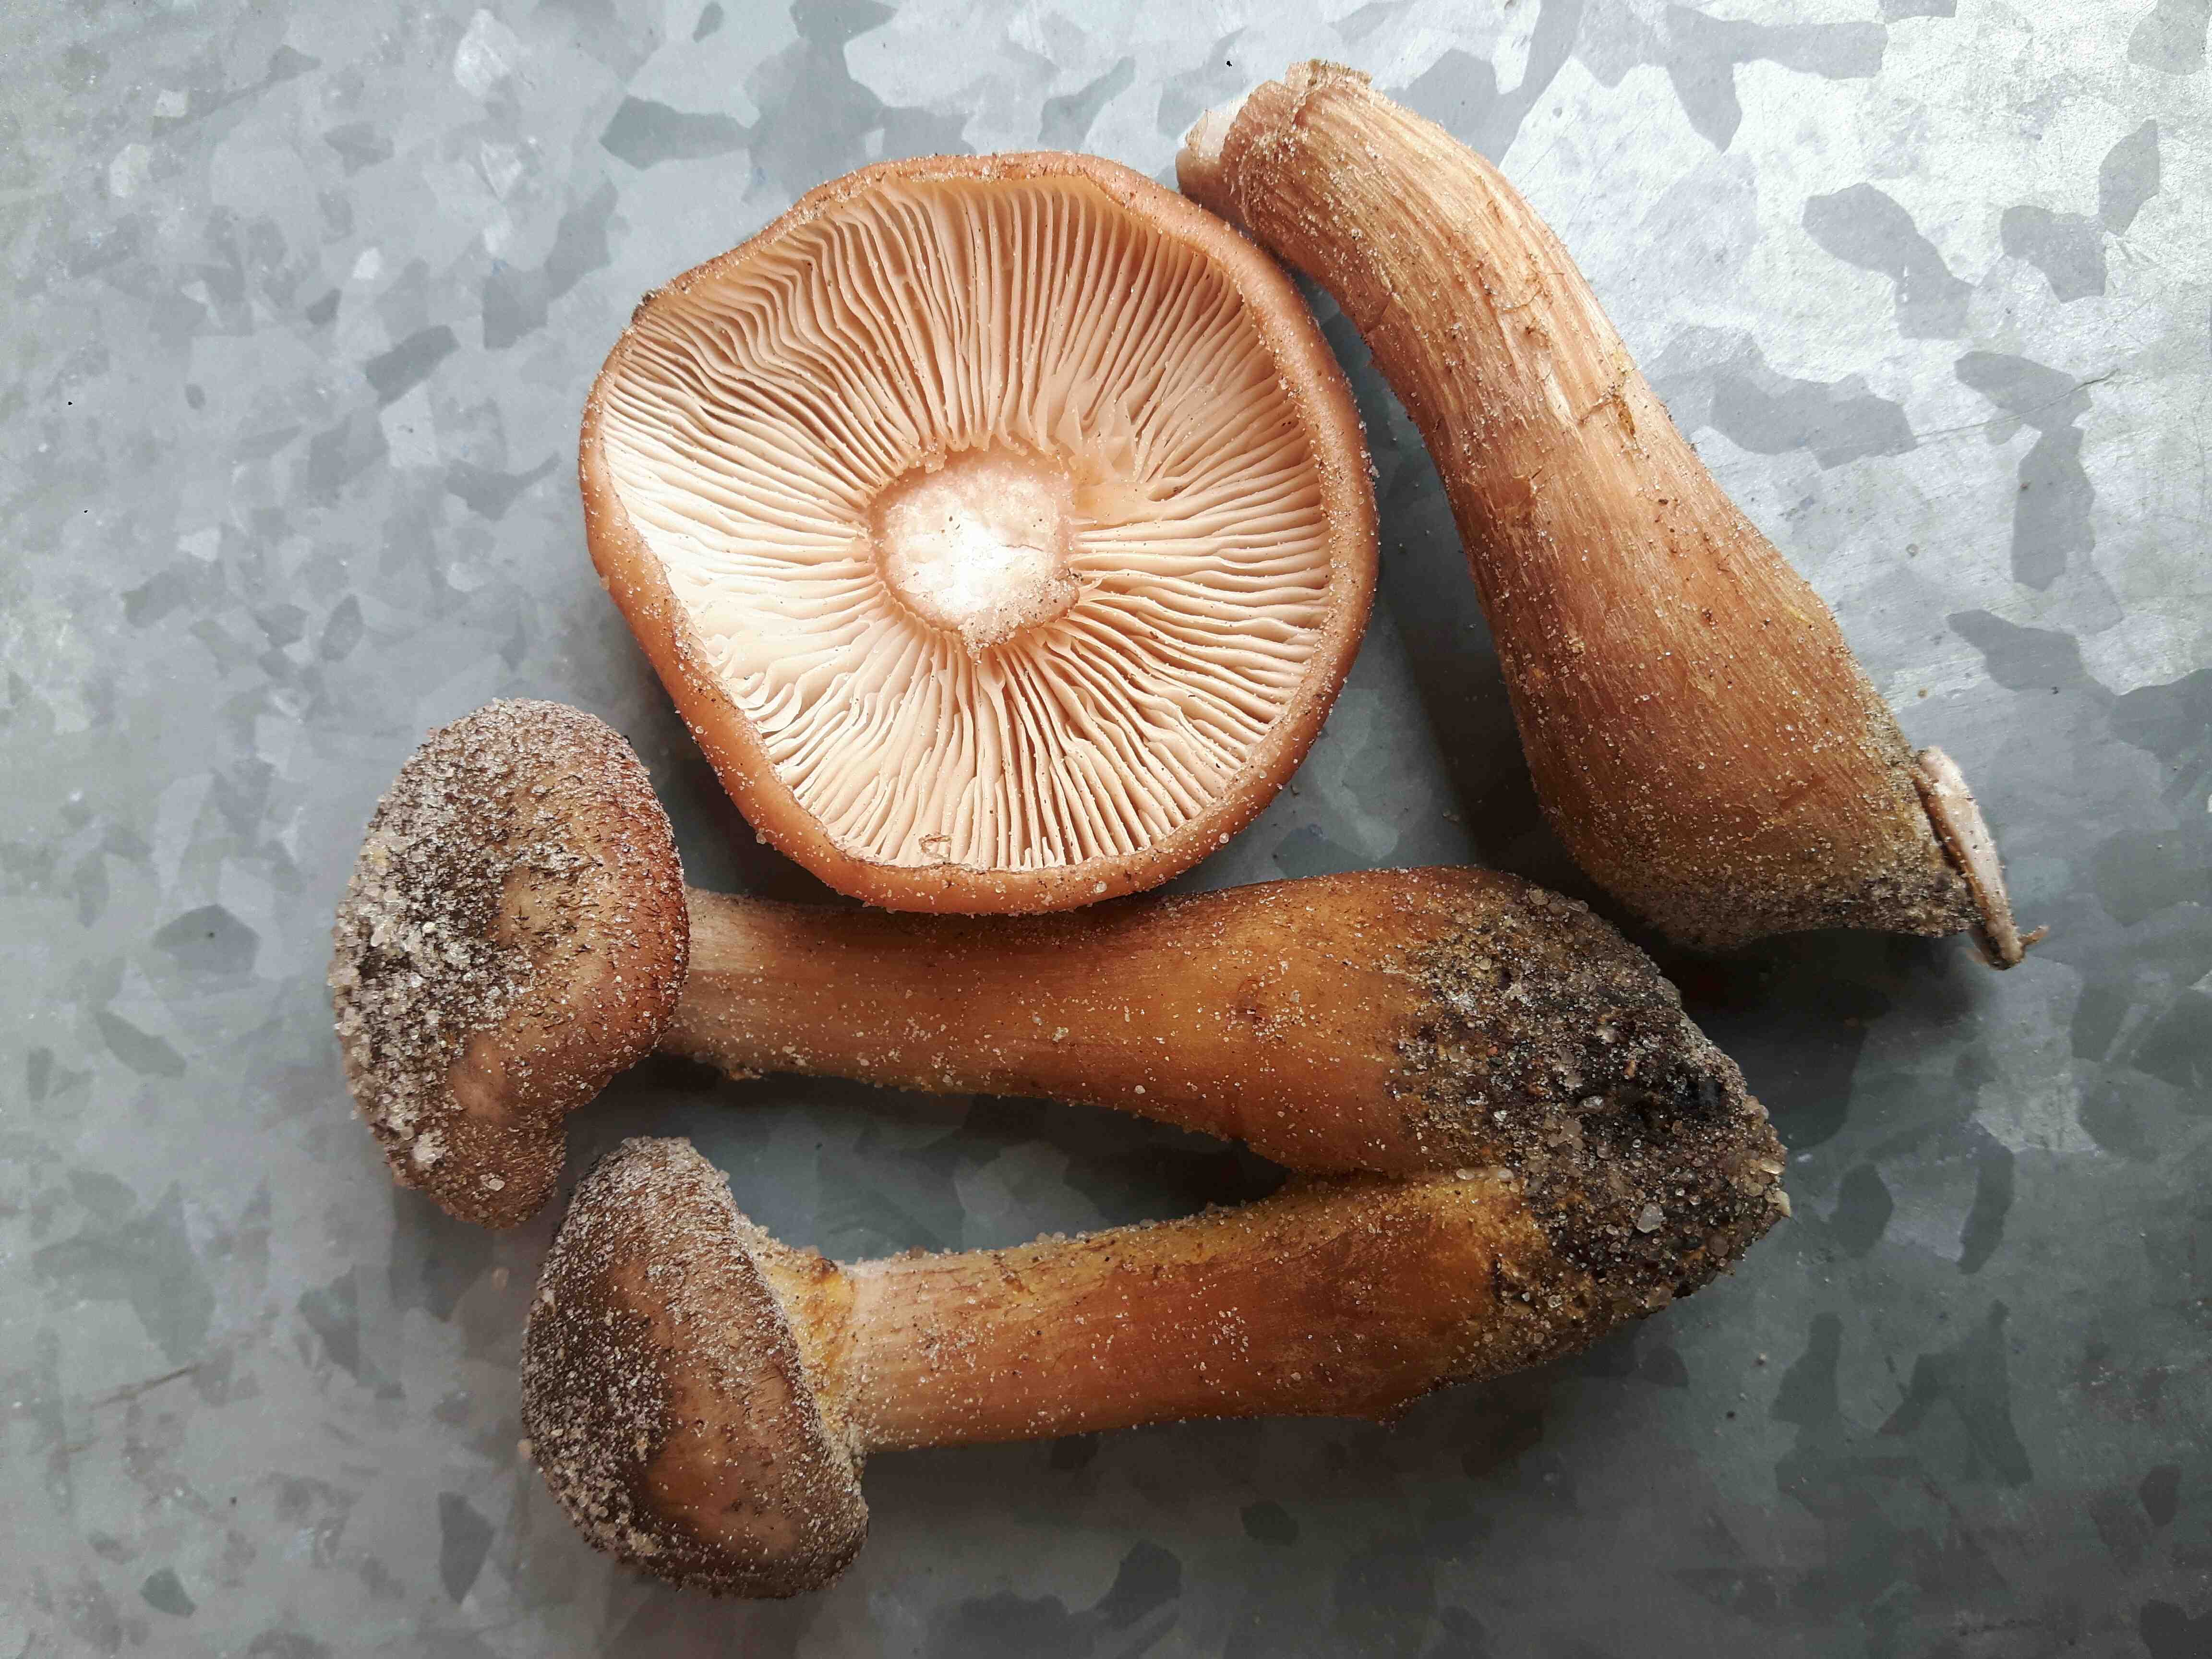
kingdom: Fungi
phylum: Basidiomycota
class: Agaricomycetes
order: Agaricales
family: Physalacriaceae
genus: Armillaria
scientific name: Armillaria lutea
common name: køllestokket honningsvamp
